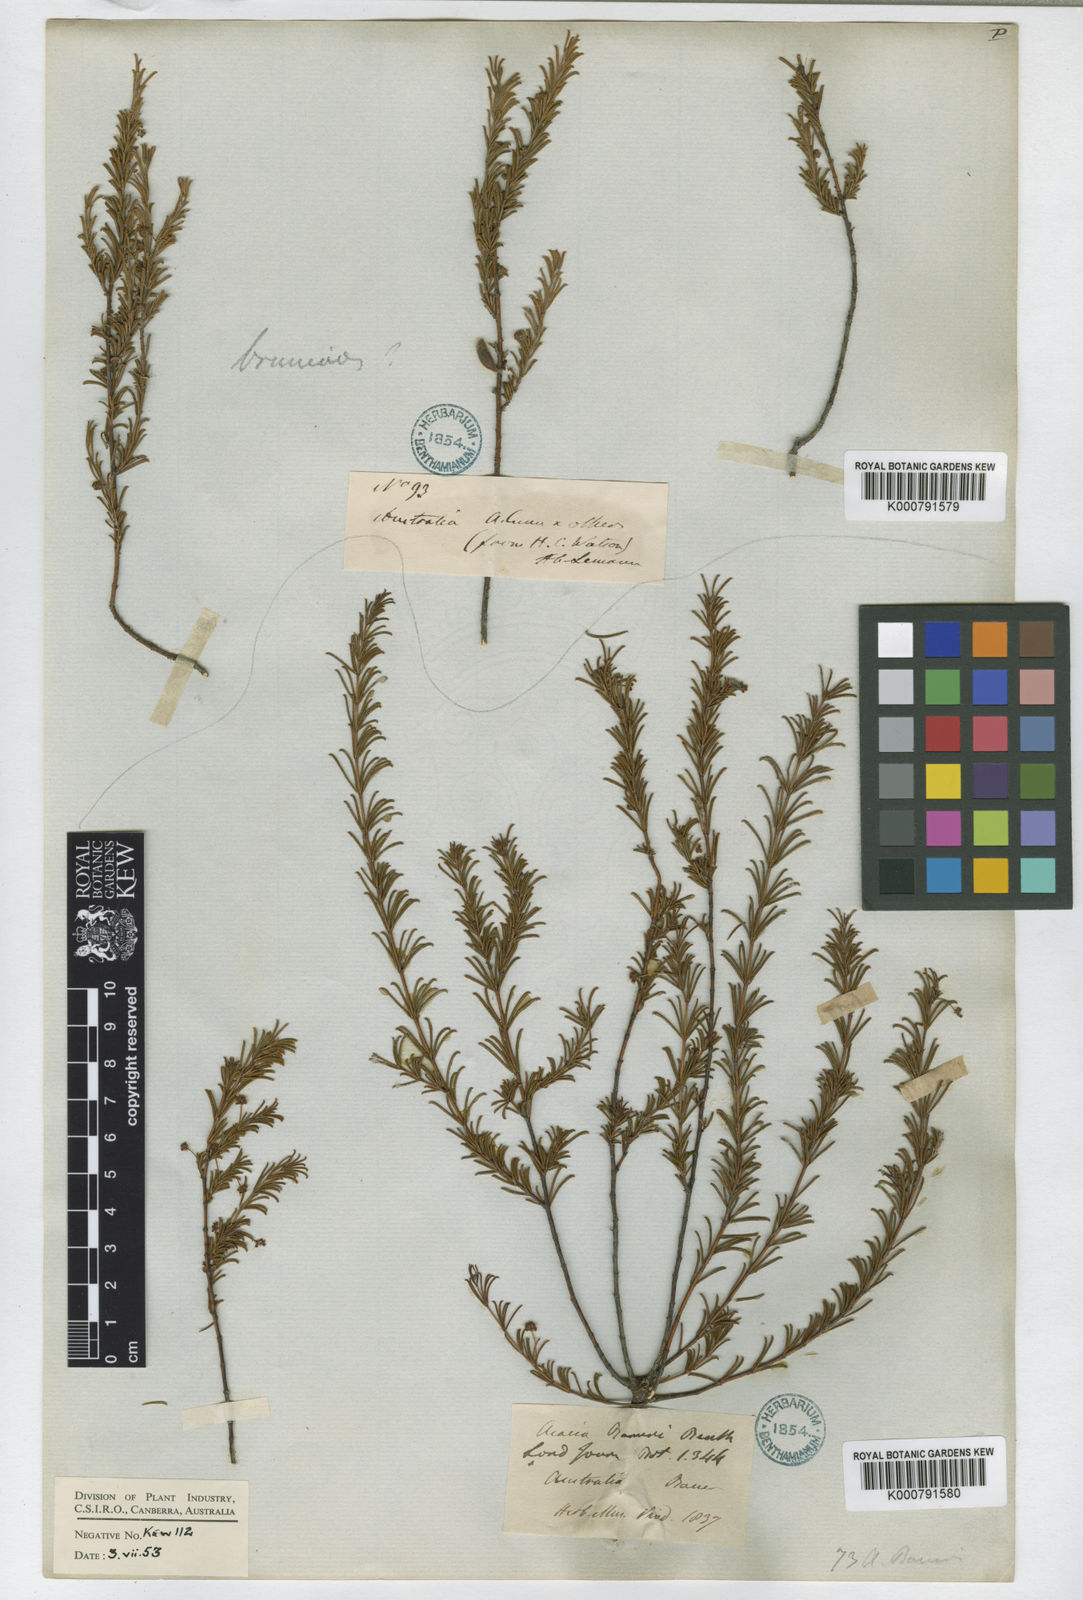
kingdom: Plantae
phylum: Tracheophyta
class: Magnoliopsida
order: Fabales
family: Fabaceae
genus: Acacia
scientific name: Acacia baueri
